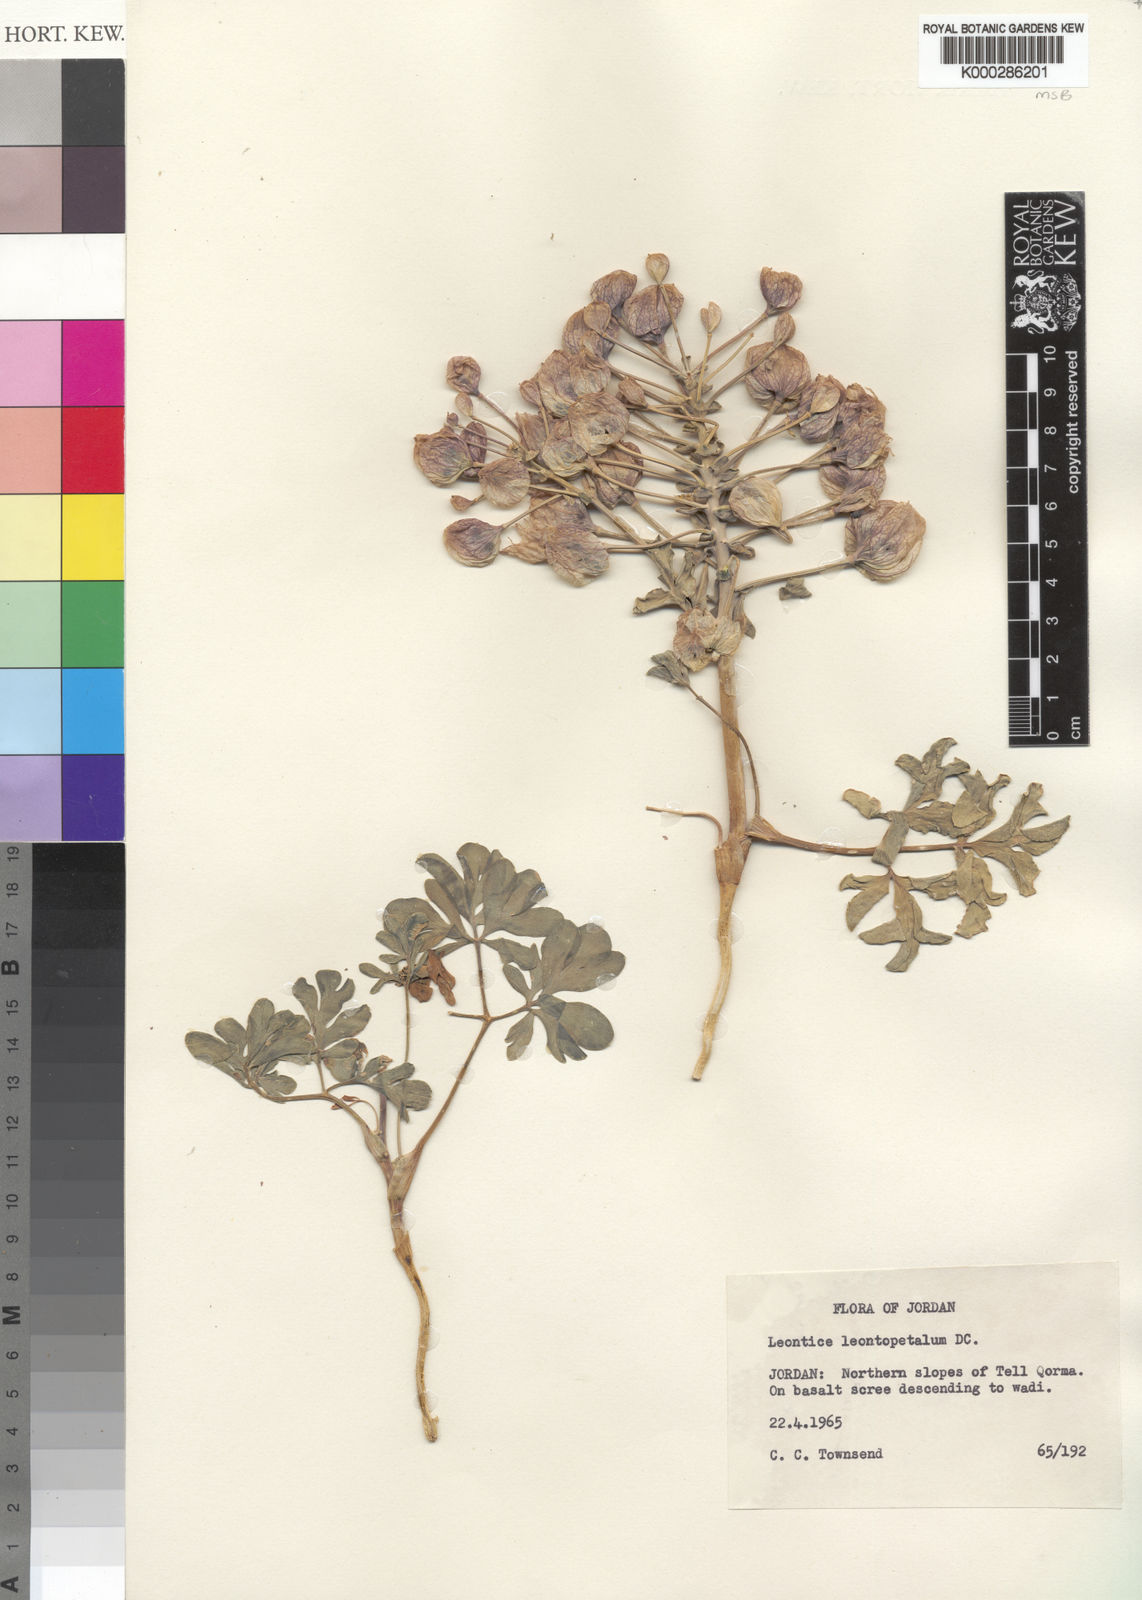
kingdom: Plantae
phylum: Tracheophyta
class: Magnoliopsida
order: Ranunculales
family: Berberidaceae
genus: Leontice
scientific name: Leontice leontopetalum
